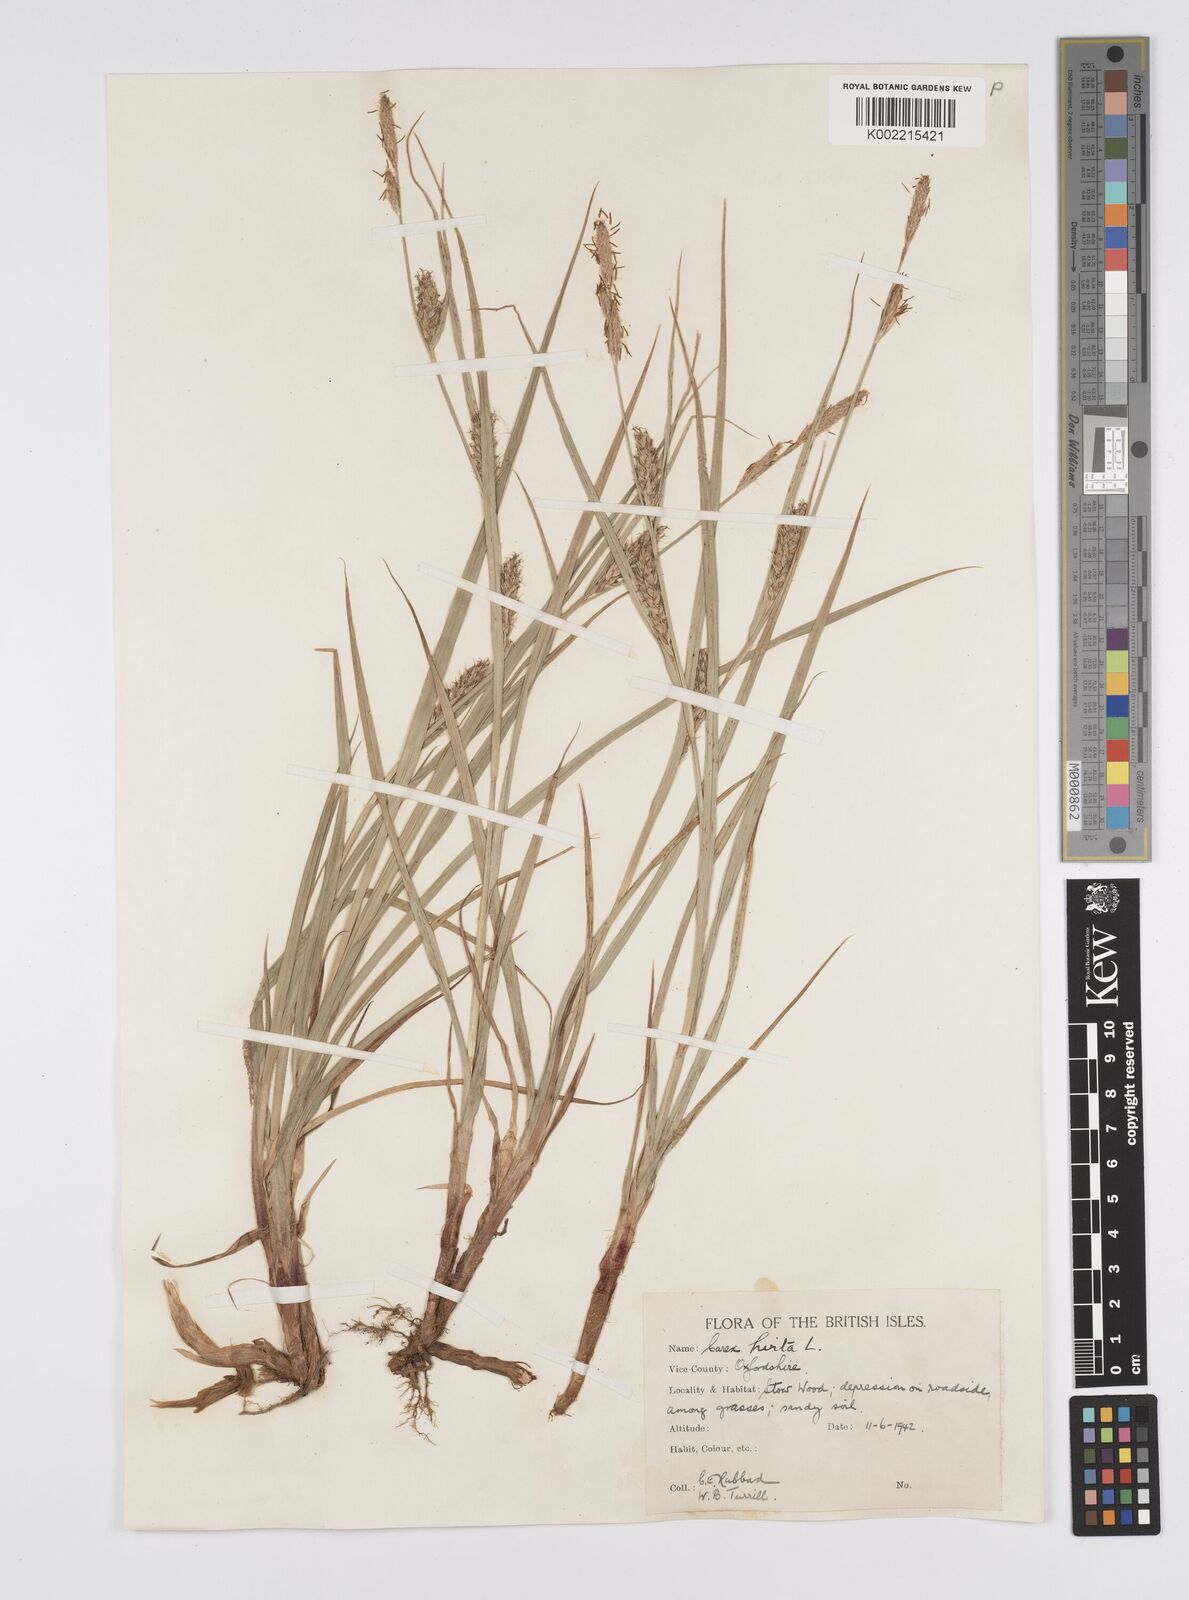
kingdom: Plantae
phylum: Tracheophyta
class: Liliopsida
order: Poales
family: Cyperaceae
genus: Carex
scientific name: Carex hirta
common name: Hairy sedge
